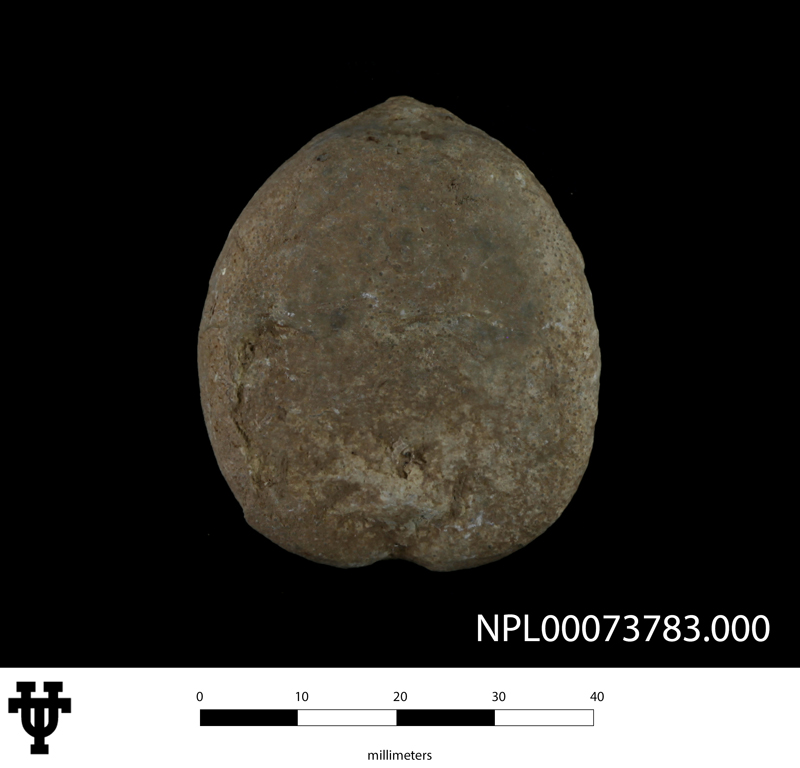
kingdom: Animalia
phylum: Echinodermata
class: Echinoidea
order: Holasteroida
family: Holasteridae
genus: Holaster
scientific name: Holaster simplex
